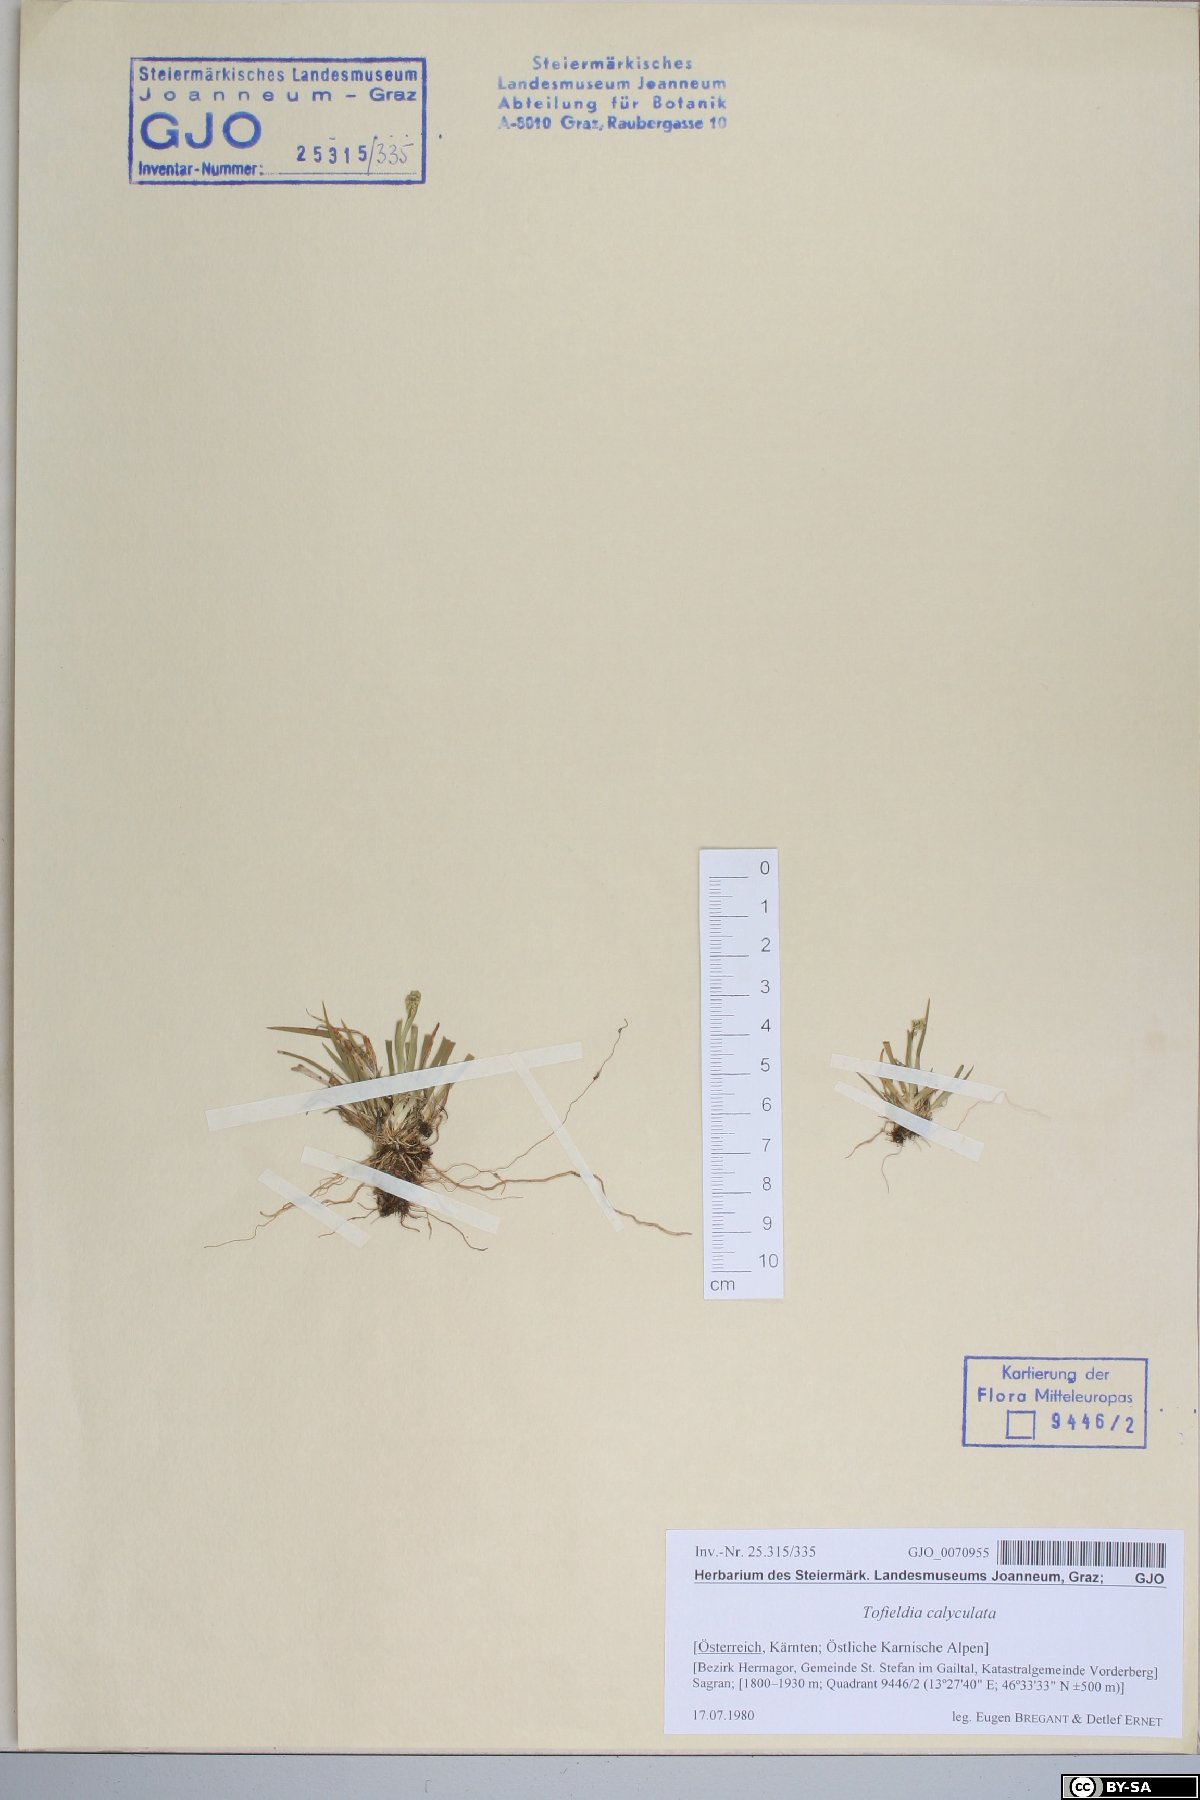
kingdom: Plantae
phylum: Tracheophyta
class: Liliopsida
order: Alismatales
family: Tofieldiaceae
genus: Tofieldia
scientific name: Tofieldia calyculata
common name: German-asphodel
